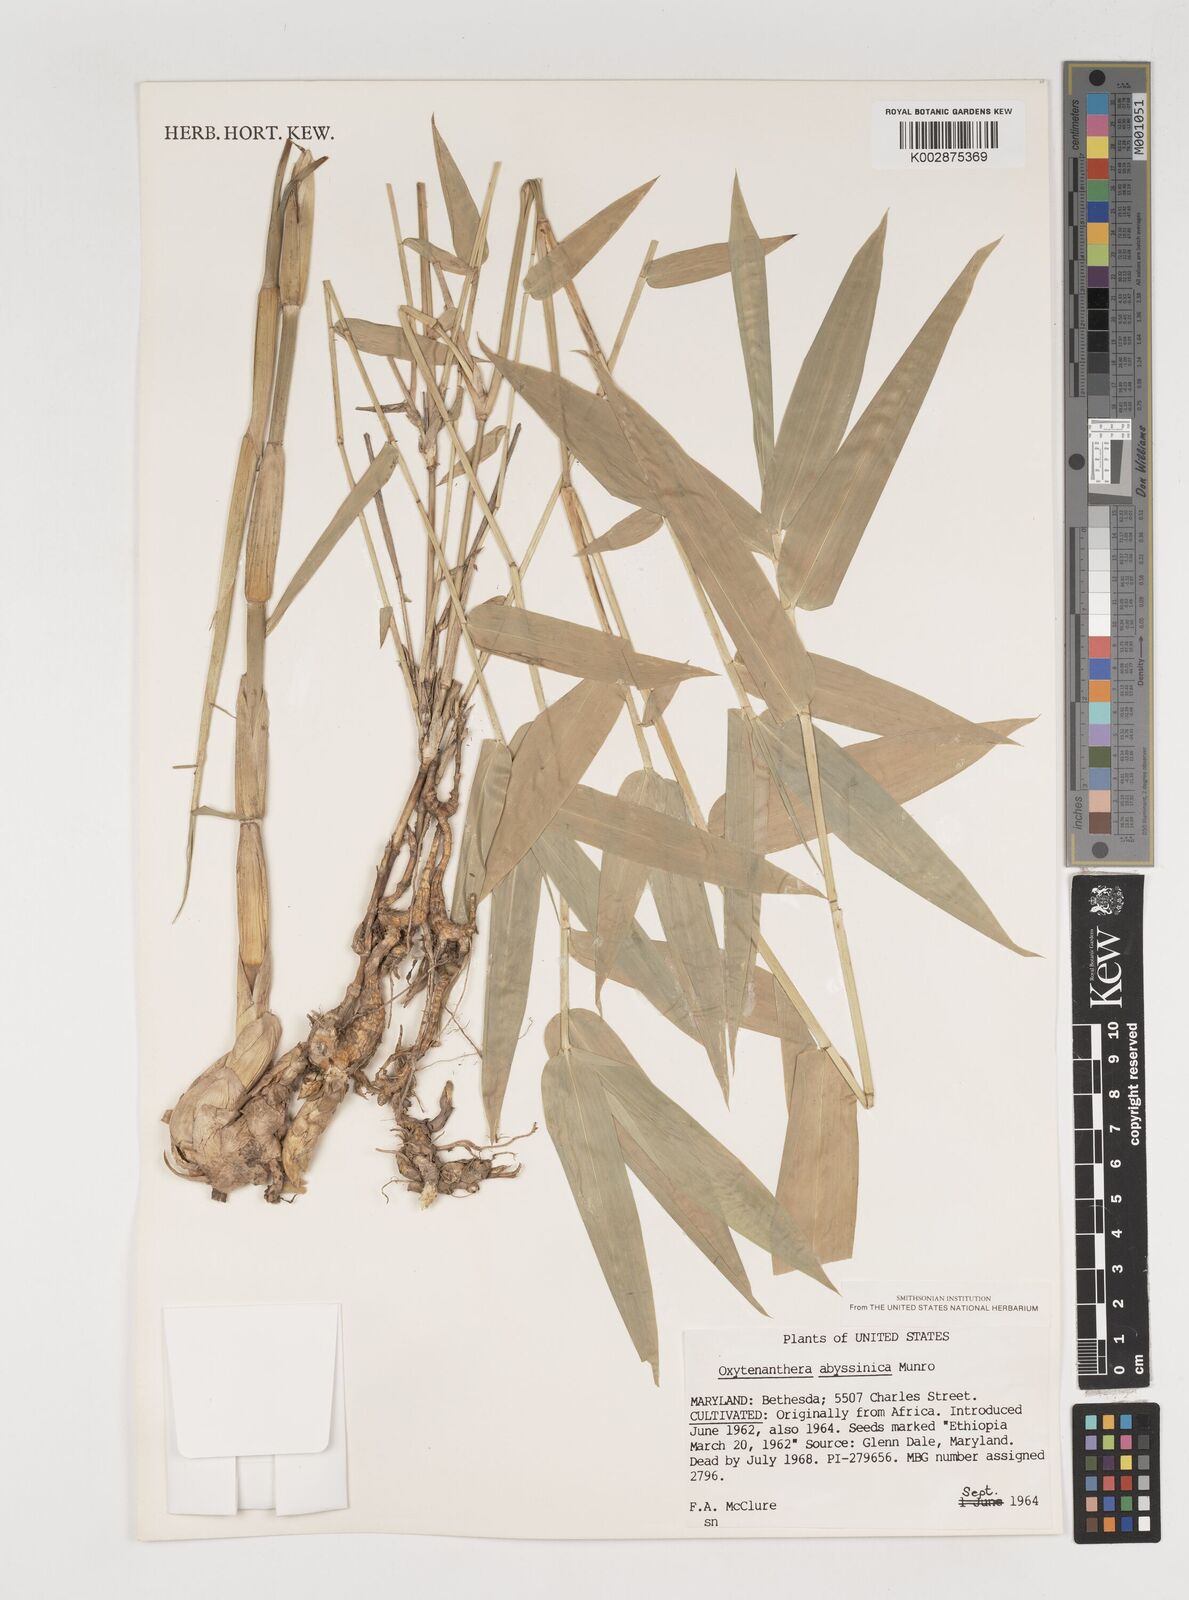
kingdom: Plantae
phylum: Tracheophyta
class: Liliopsida
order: Poales
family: Poaceae
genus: Oxytenanthera
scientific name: Oxytenanthera abyssinica
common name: Wine bamboo
